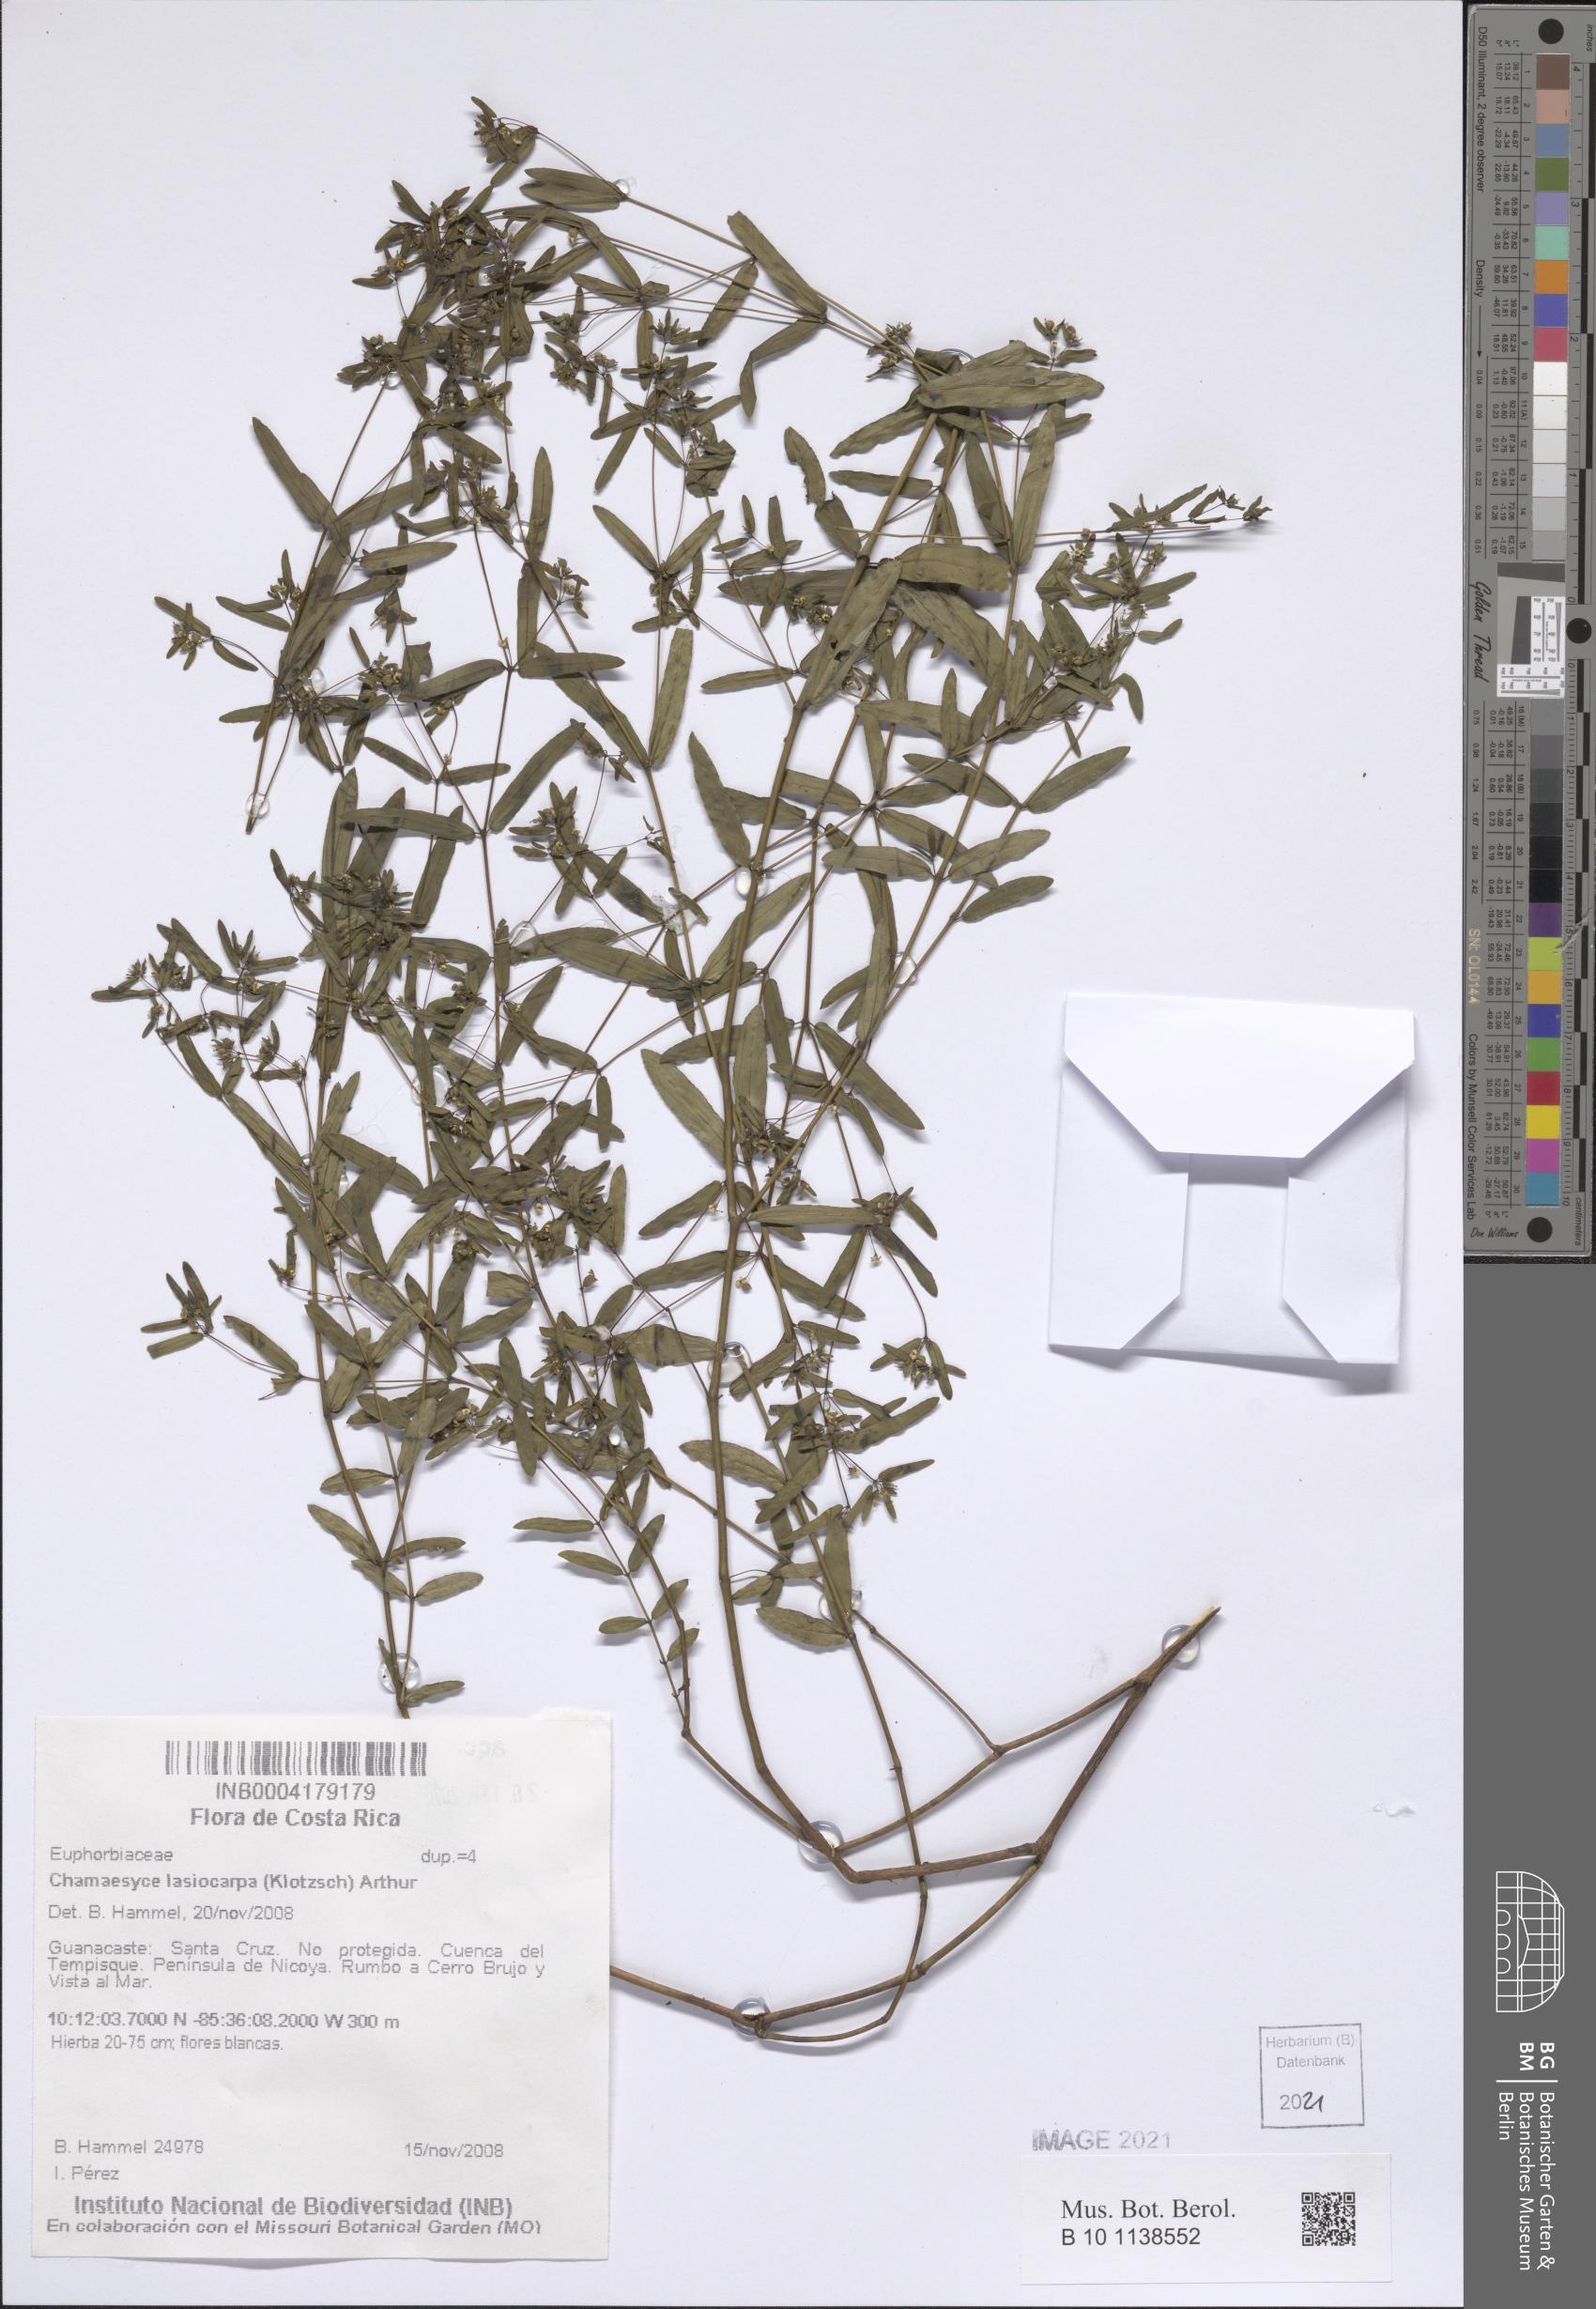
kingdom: Plantae
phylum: Tracheophyta
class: Magnoliopsida
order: Malpighiales
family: Euphorbiaceae
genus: Euphorbia
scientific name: Euphorbia lasiocarpa
